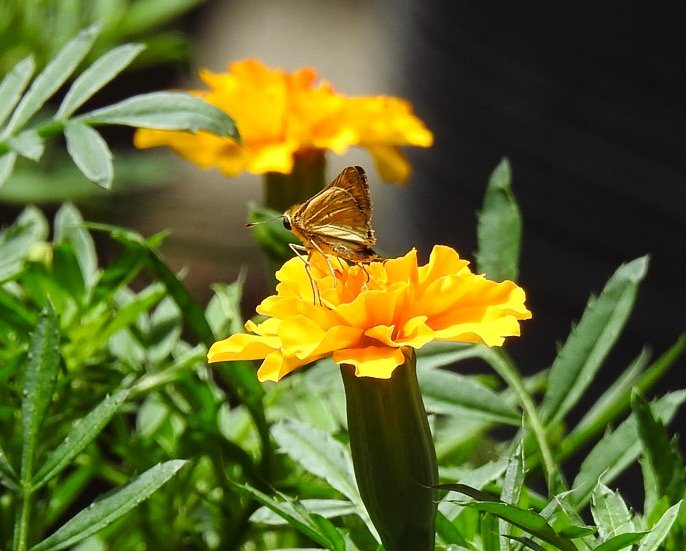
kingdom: Animalia
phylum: Arthropoda
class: Insecta
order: Lepidoptera
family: Hesperiidae
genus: Hylephila
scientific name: Hylephila phyleus
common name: Fiery Skipper
